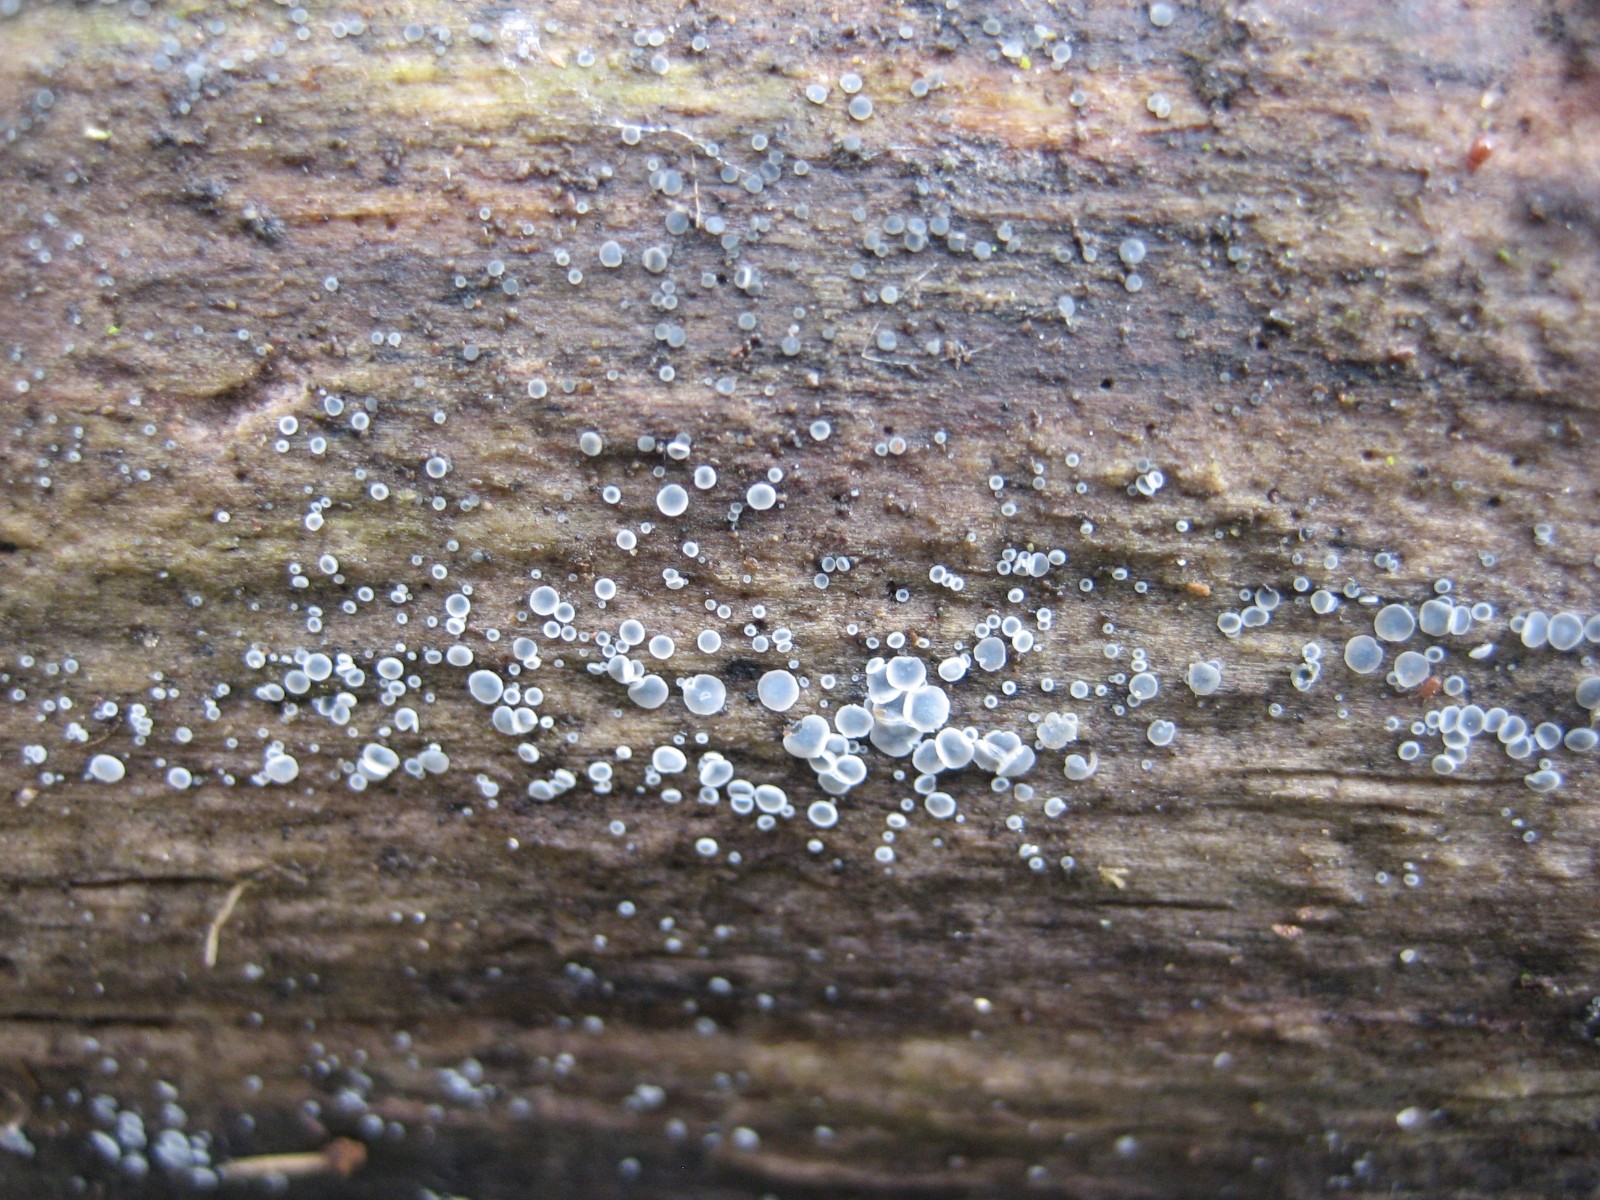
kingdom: Fungi
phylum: Ascomycota
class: Leotiomycetes
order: Helotiales
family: Mollisiaceae
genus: Mollisia
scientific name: Mollisia
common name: gråskive
